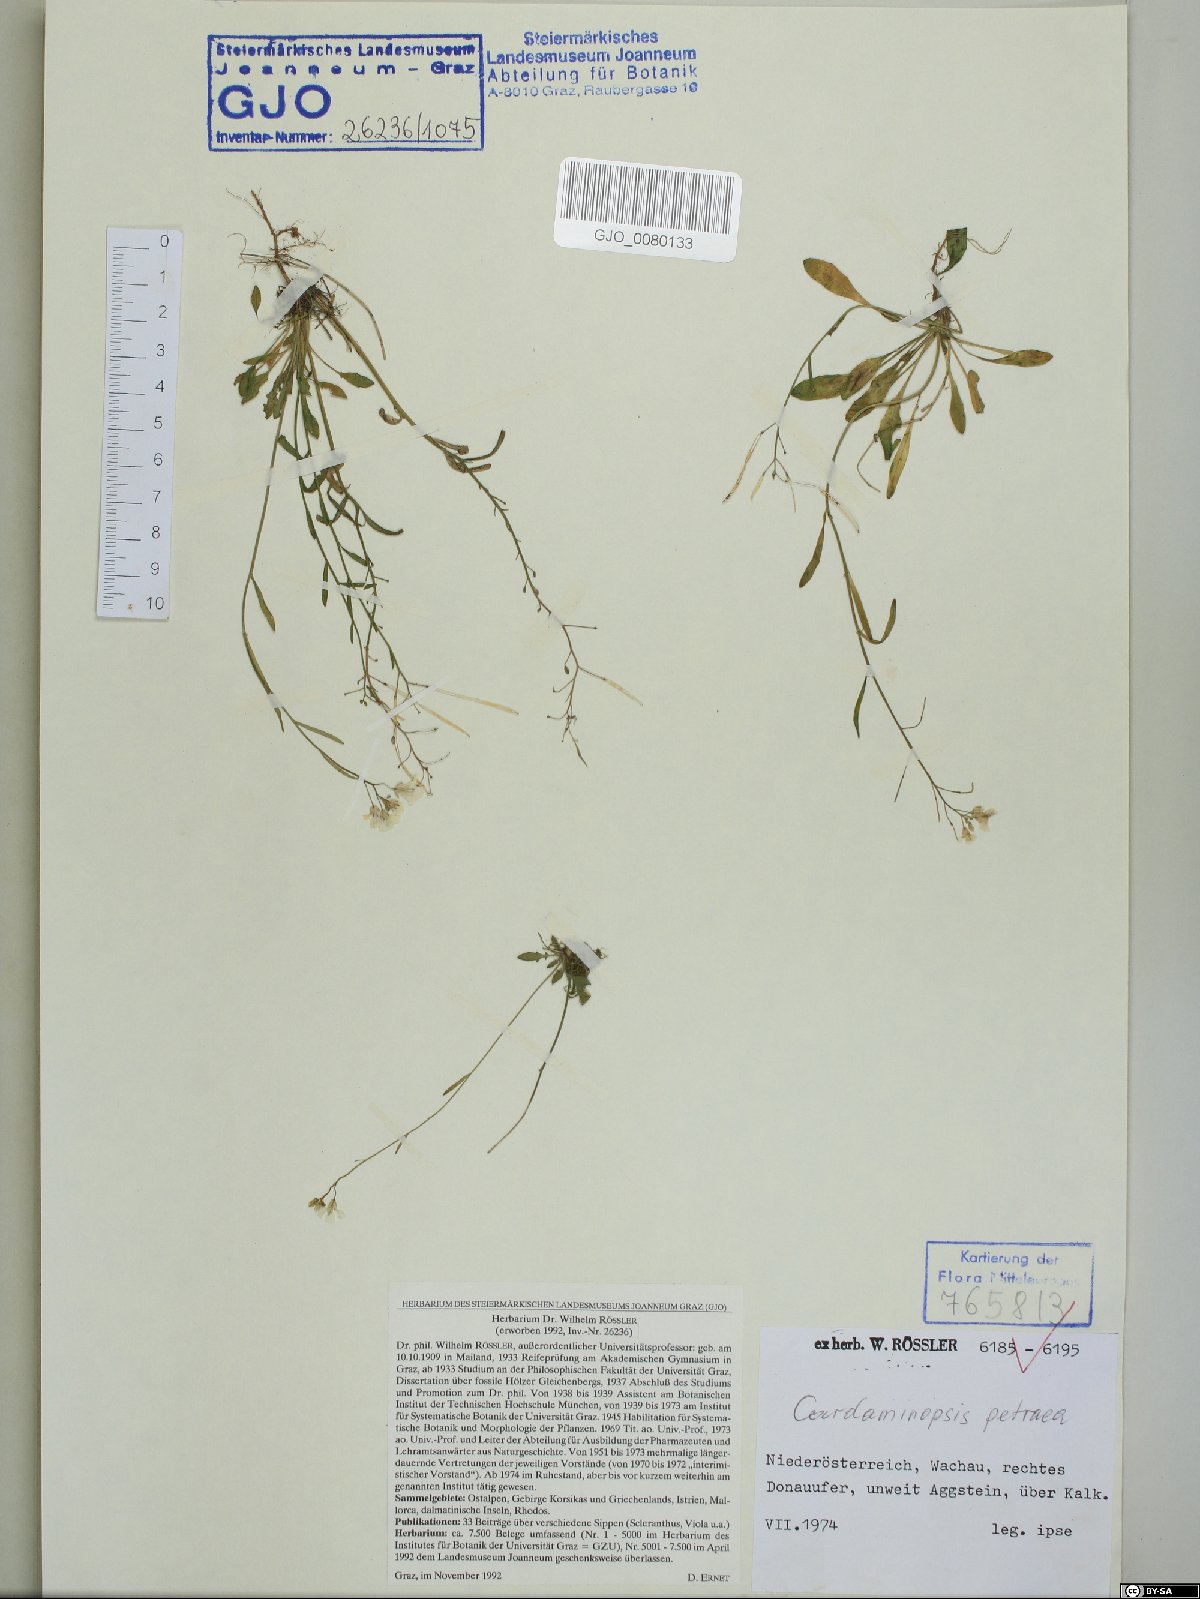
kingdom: Plantae
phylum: Tracheophyta
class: Magnoliopsida
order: Brassicales
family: Brassicaceae
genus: Arabidopsis
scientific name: Arabidopsis lyrata
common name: Lyrate rockcress
